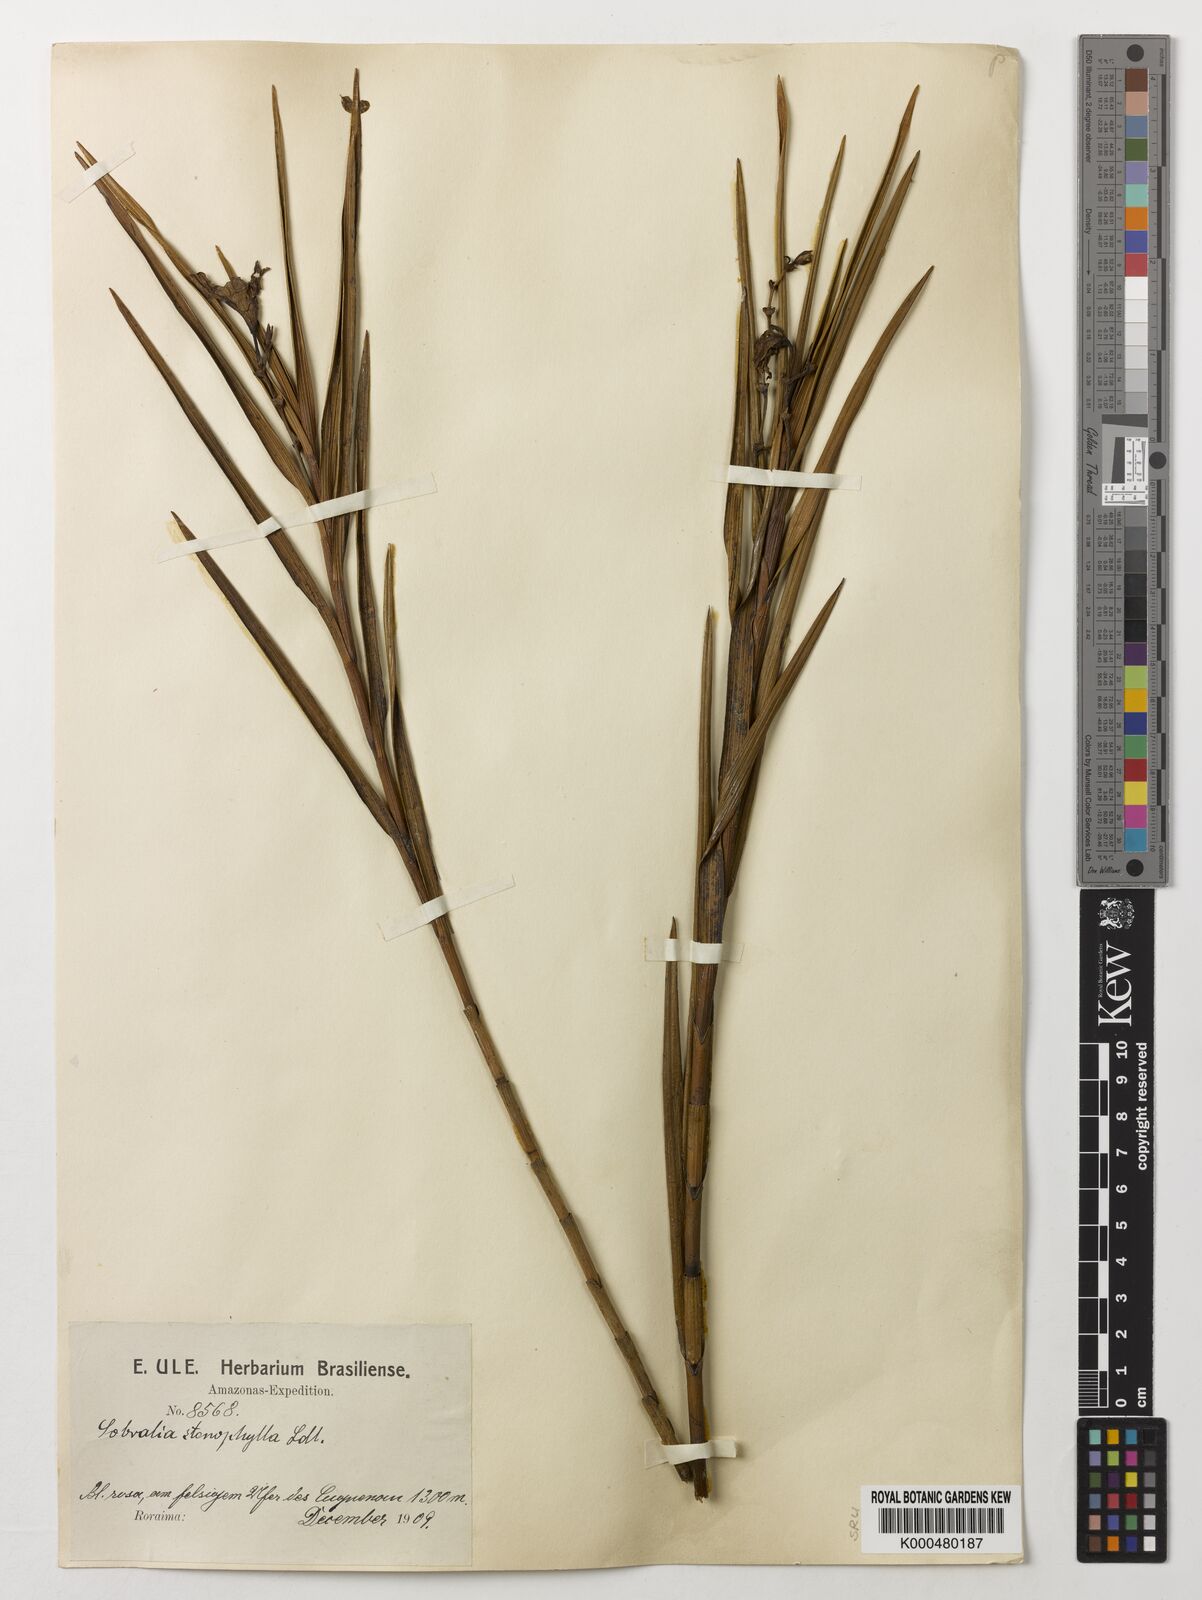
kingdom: Plantae
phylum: Tracheophyta
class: Liliopsida
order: Asparagales
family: Orchidaceae
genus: Sobralia
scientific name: Sobralia stenophylla
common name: Thin leafed sobralia
